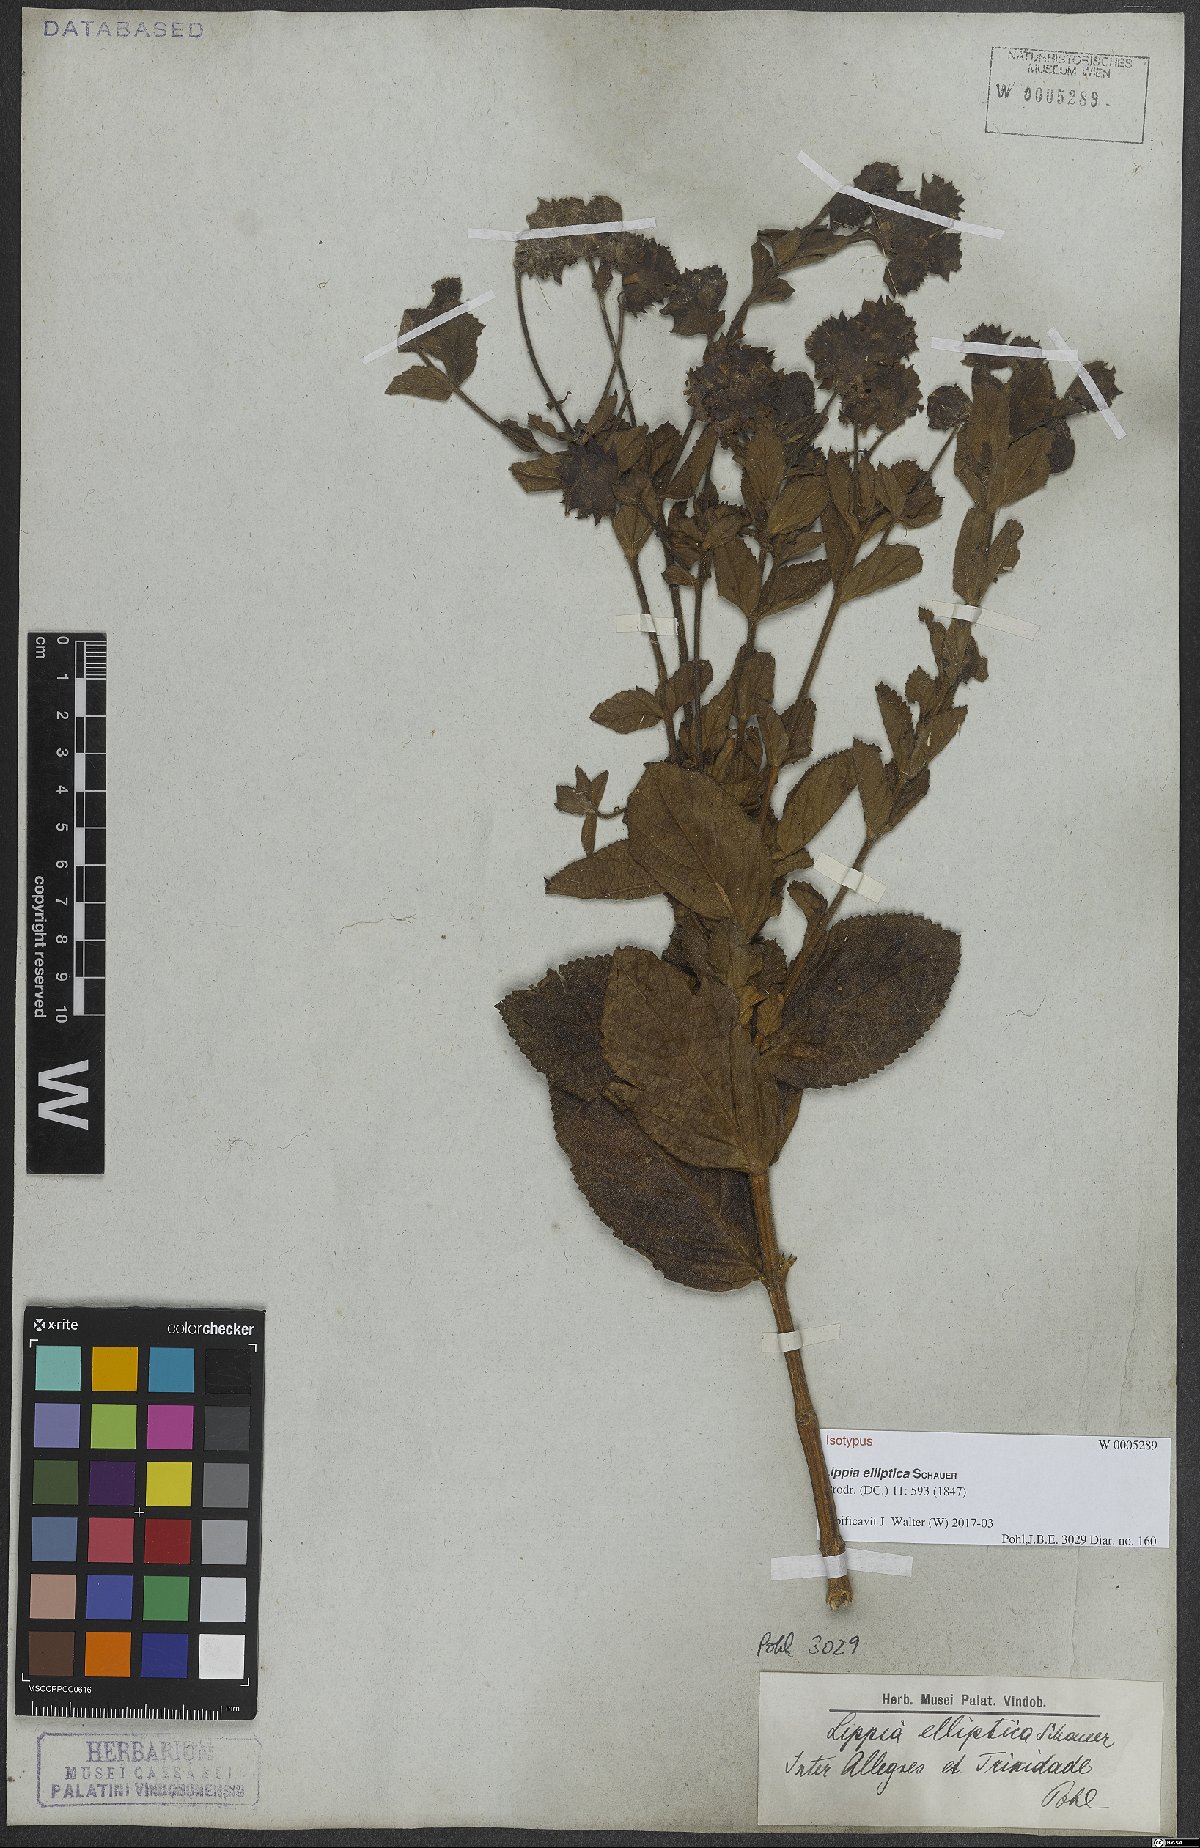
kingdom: Plantae
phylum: Tracheophyta
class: Magnoliopsida
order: Lamiales
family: Verbenaceae
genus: Lippia
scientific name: Lippia elliptica
